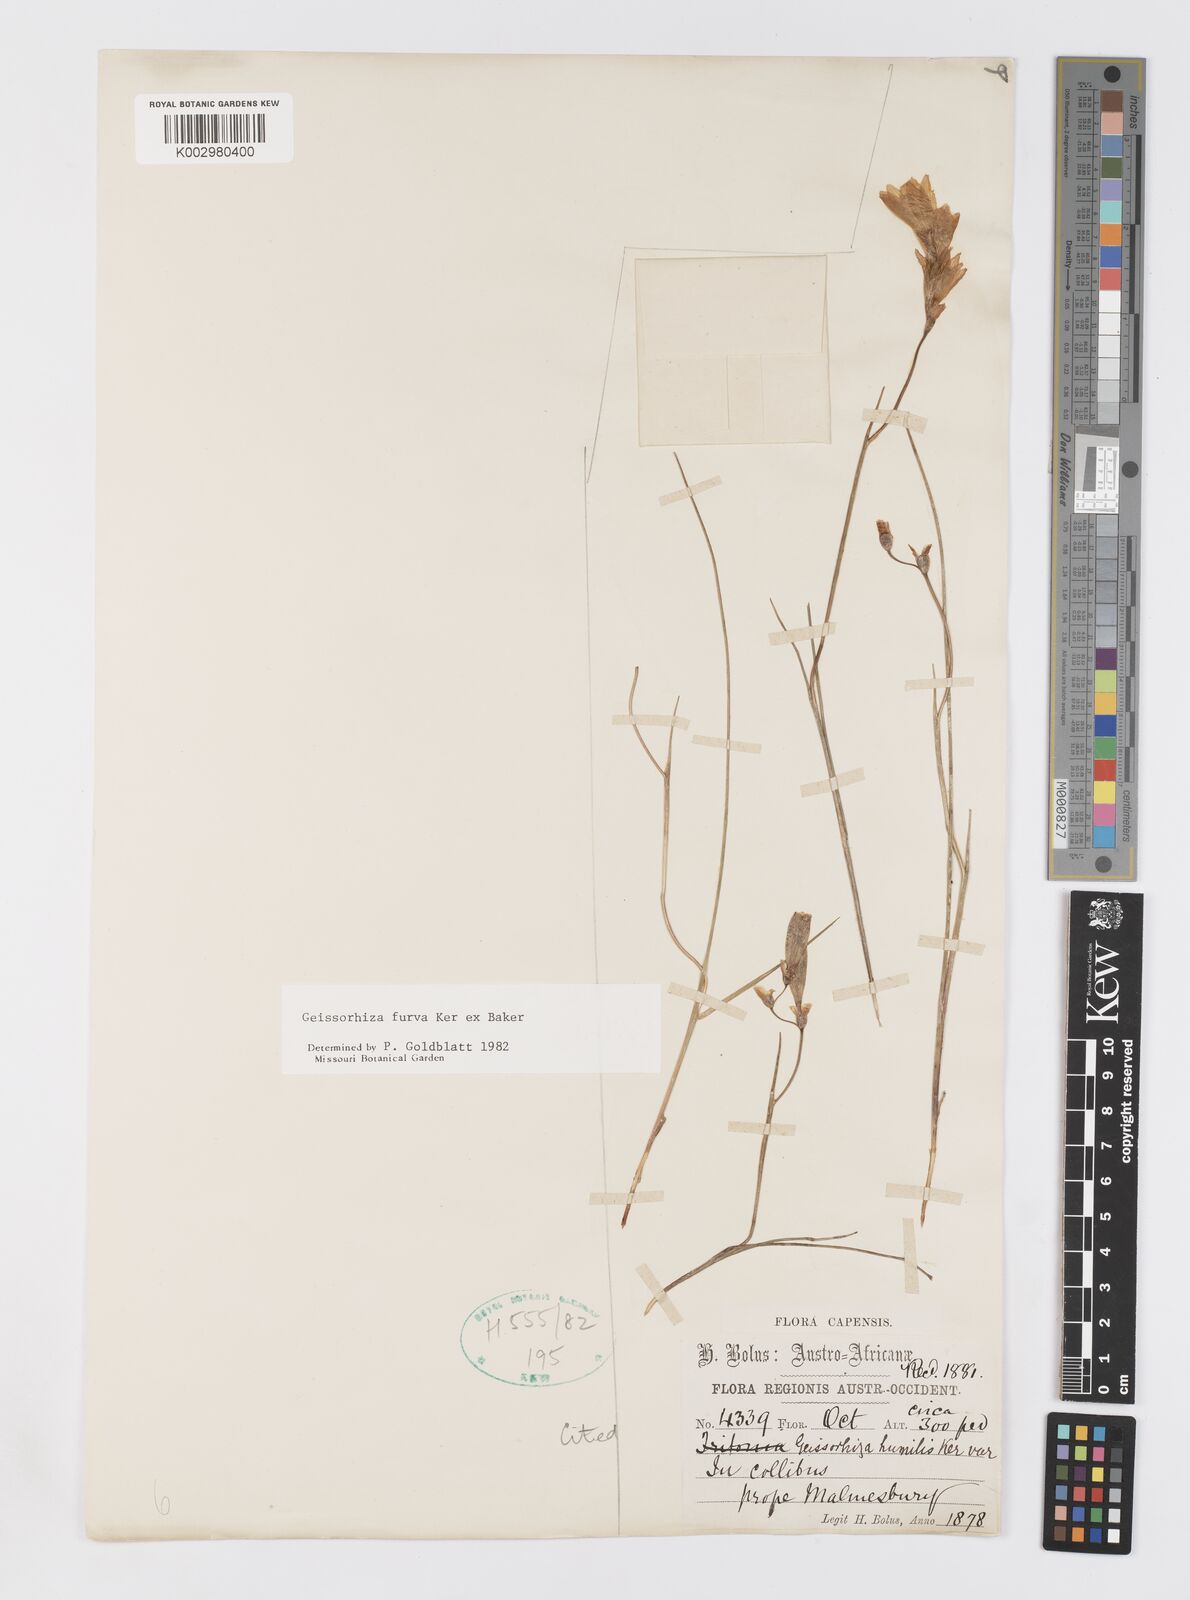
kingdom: Plantae
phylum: Tracheophyta
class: Liliopsida
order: Asparagales
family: Iridaceae
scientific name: Iridaceae
